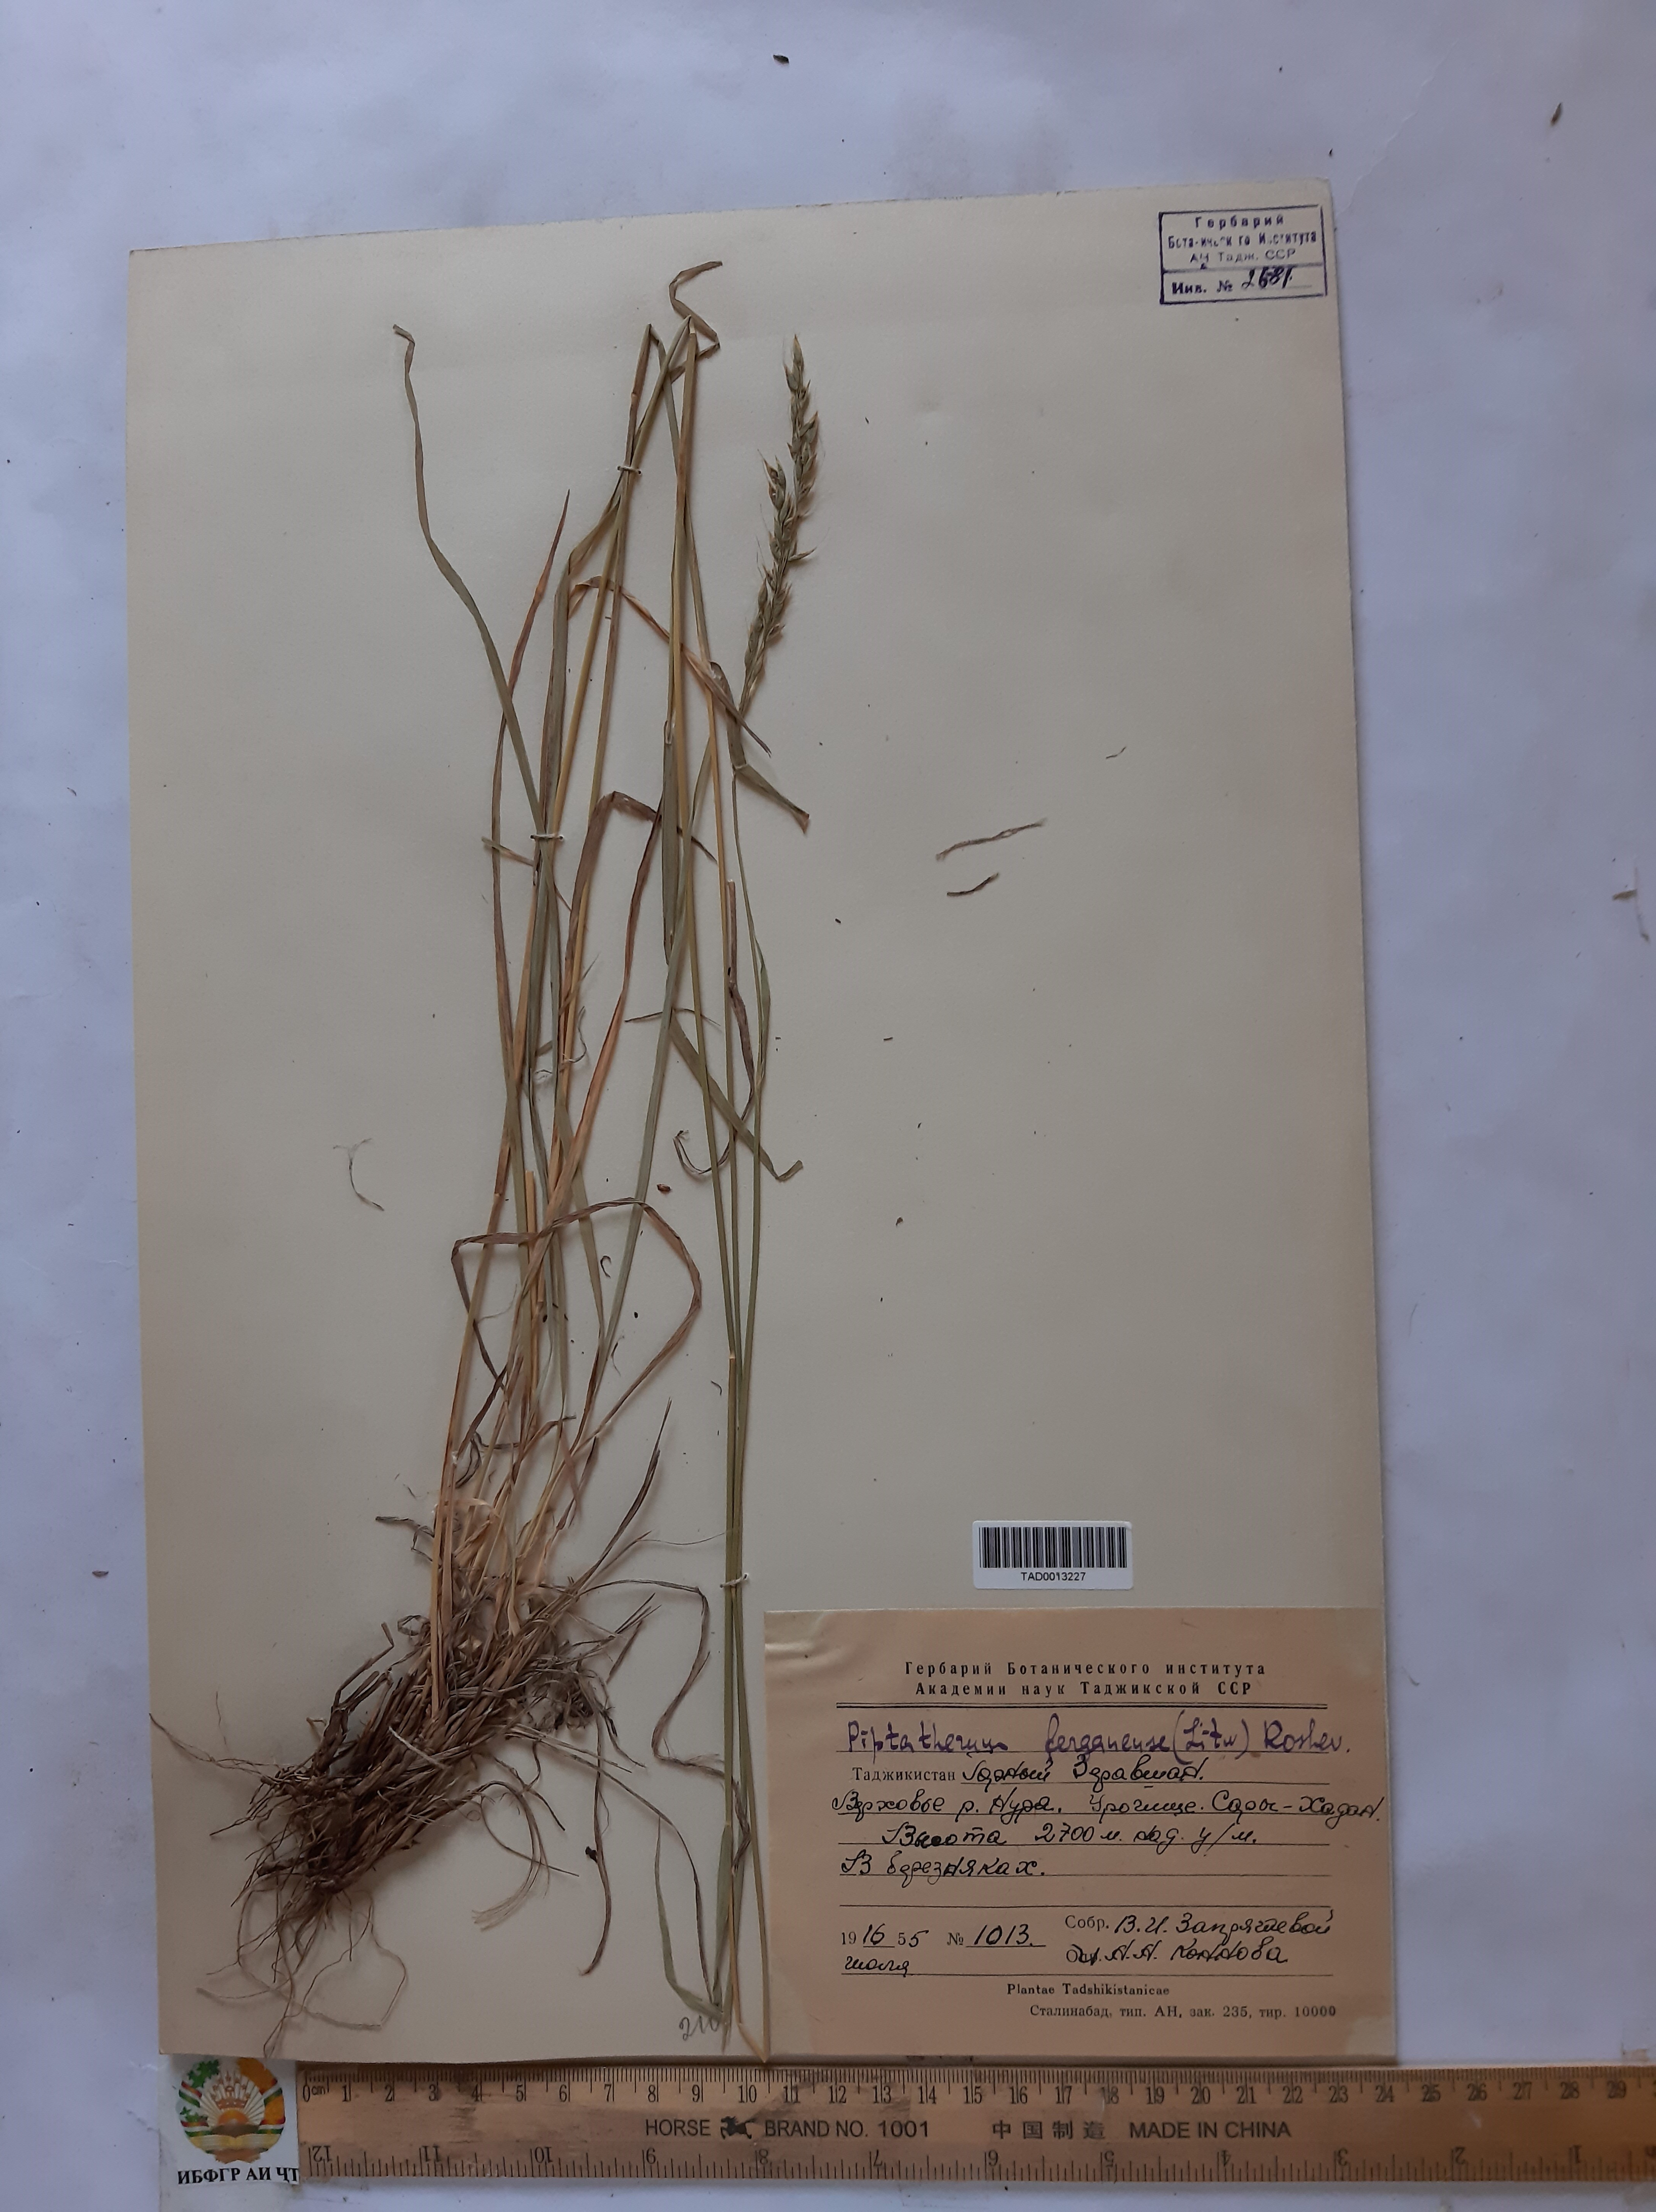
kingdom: Plantae
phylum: Tracheophyta
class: Liliopsida
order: Poales
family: Poaceae
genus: Piptatherum
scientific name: Piptatherum ferganense
